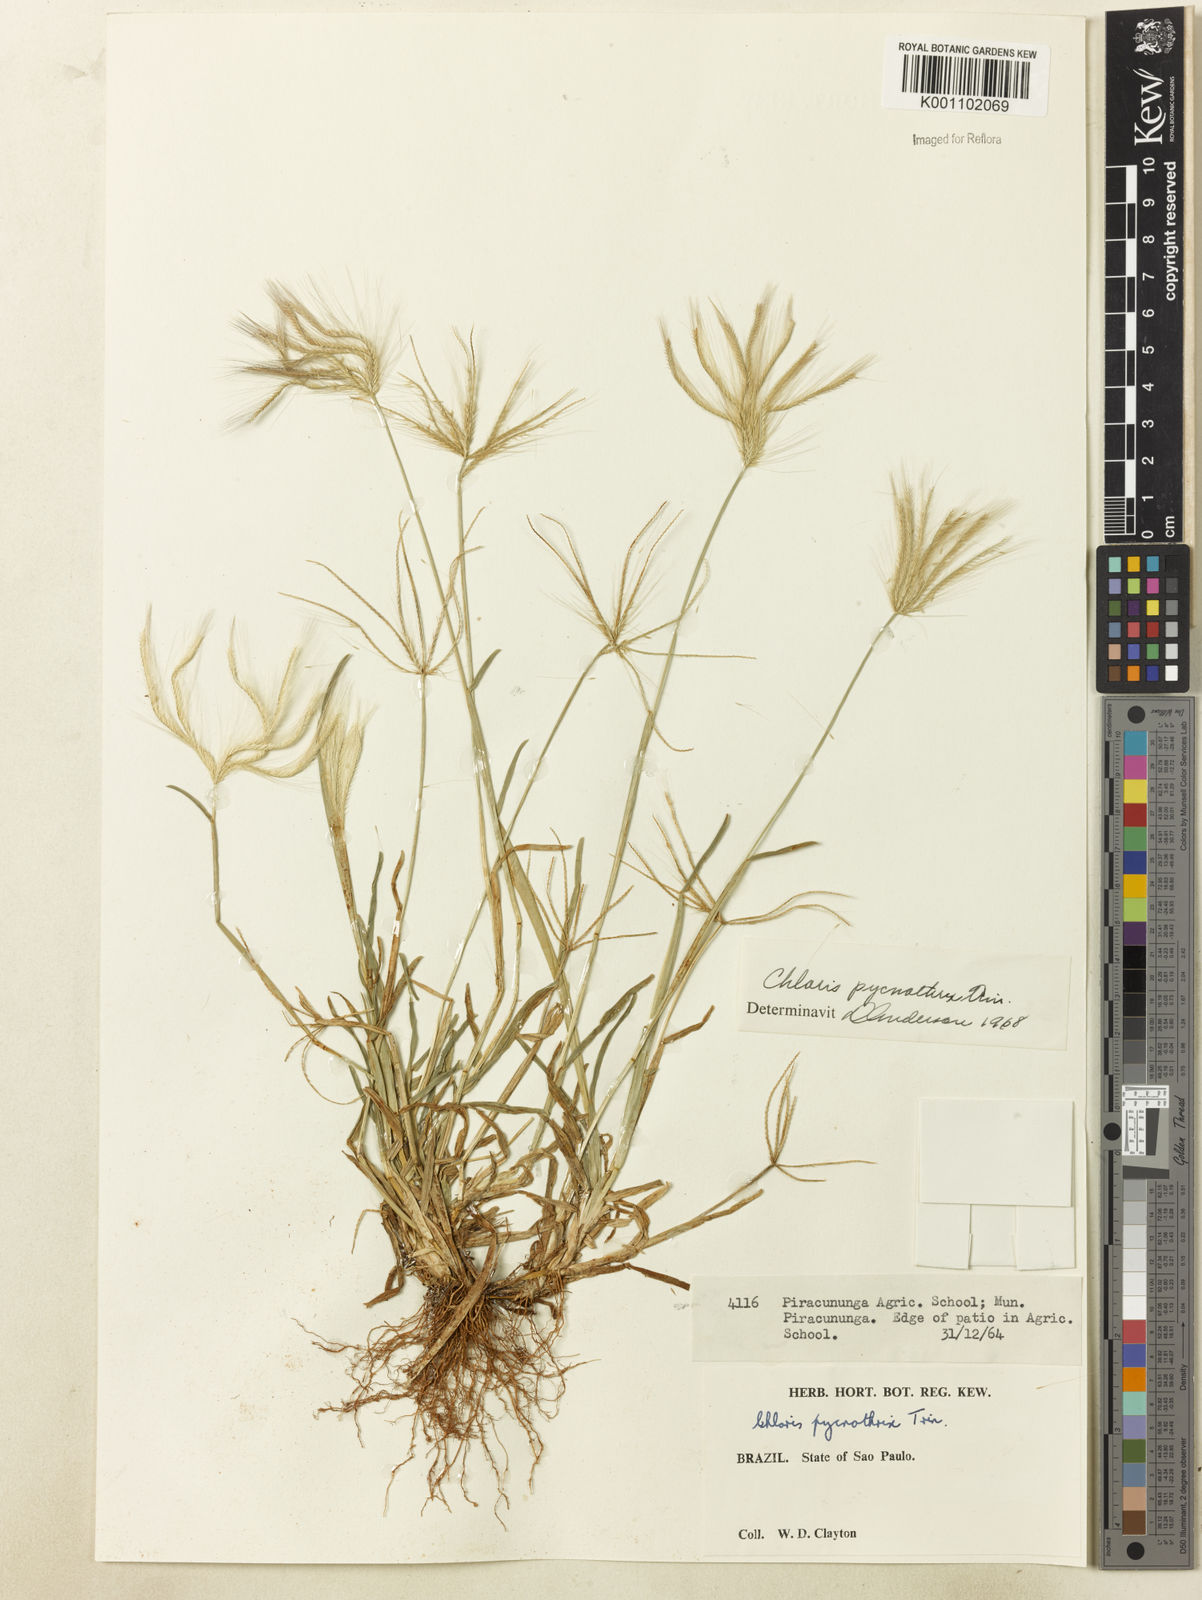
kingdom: Plantae
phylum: Tracheophyta
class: Liliopsida
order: Poales
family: Poaceae
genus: Chloris
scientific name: Chloris pycnothrix
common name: Spiderweb chloris
